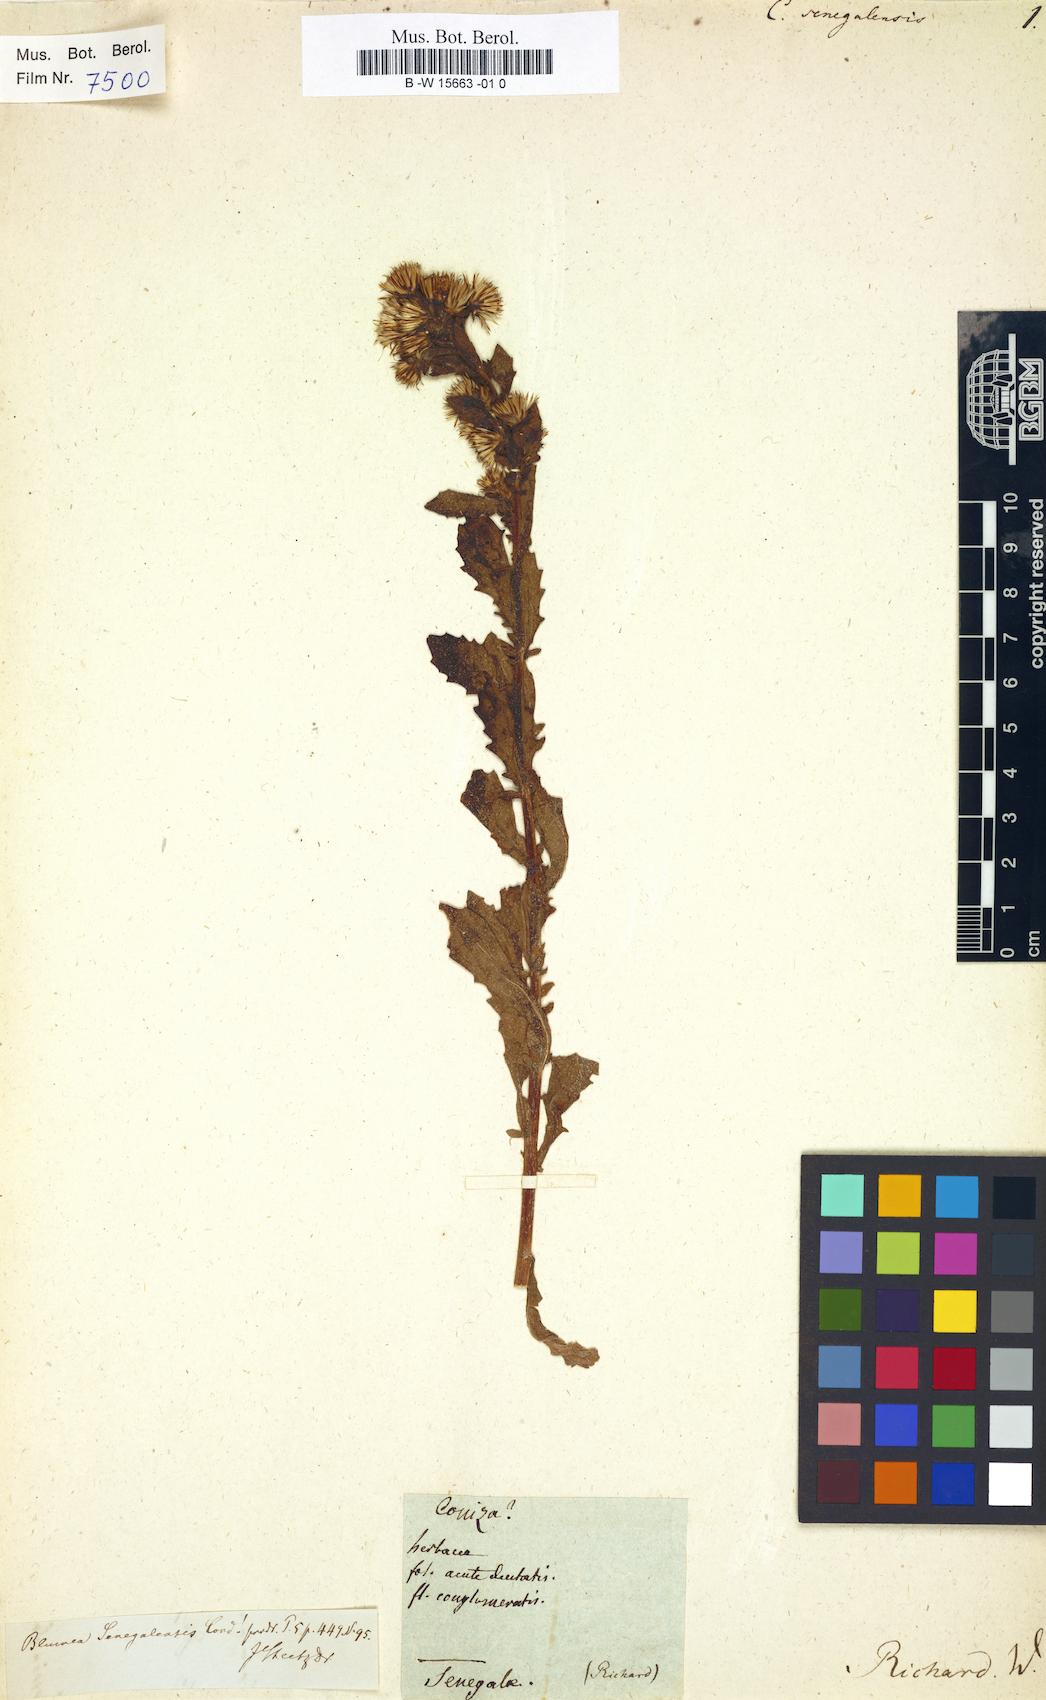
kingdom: Plantae
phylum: Tracheophyta
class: Magnoliopsida
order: Asterales
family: Asteraceae
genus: Pseudoconyza
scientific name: Pseudoconyza viscosa
